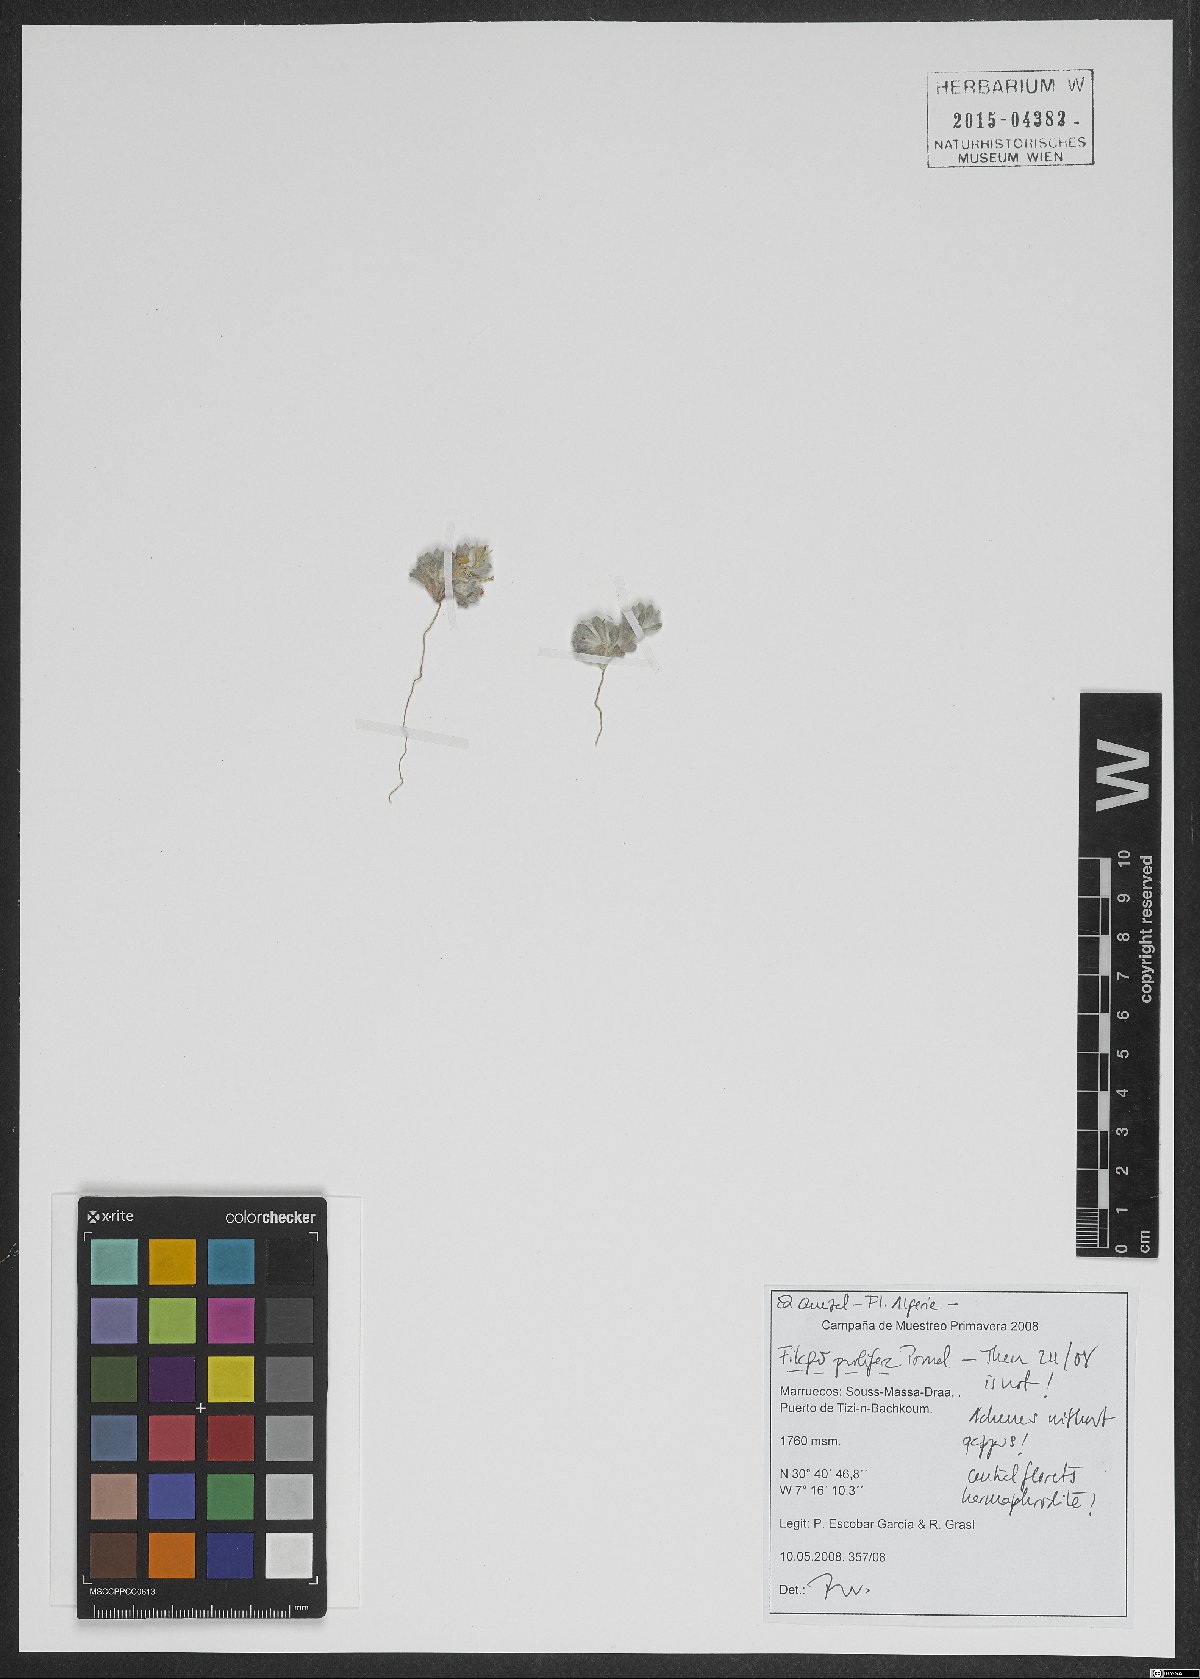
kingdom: Plantae
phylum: Tracheophyta
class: Magnoliopsida
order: Asterales
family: Asteraceae
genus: Filago
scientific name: Filago prolifera
